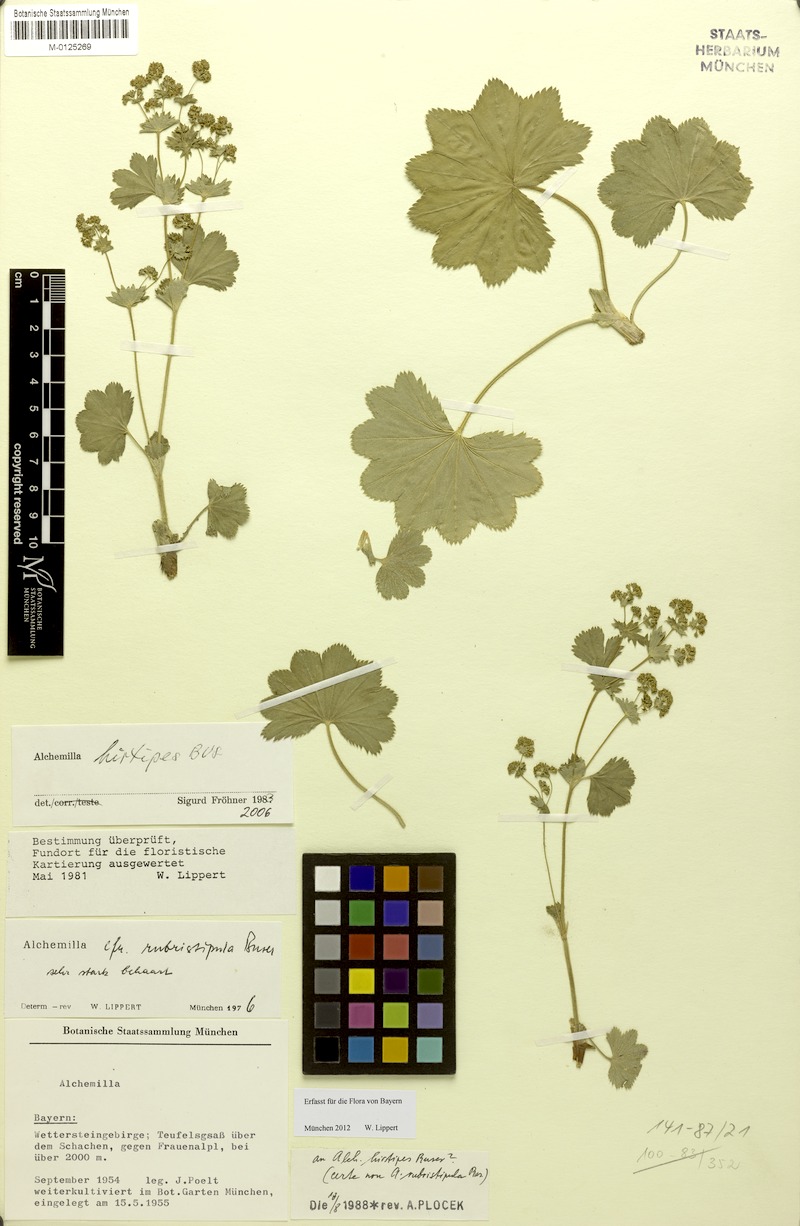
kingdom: Plantae
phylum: Tracheophyta
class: Magnoliopsida
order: Rosales
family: Rosaceae
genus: Alchemilla
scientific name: Alchemilla hirtipes
